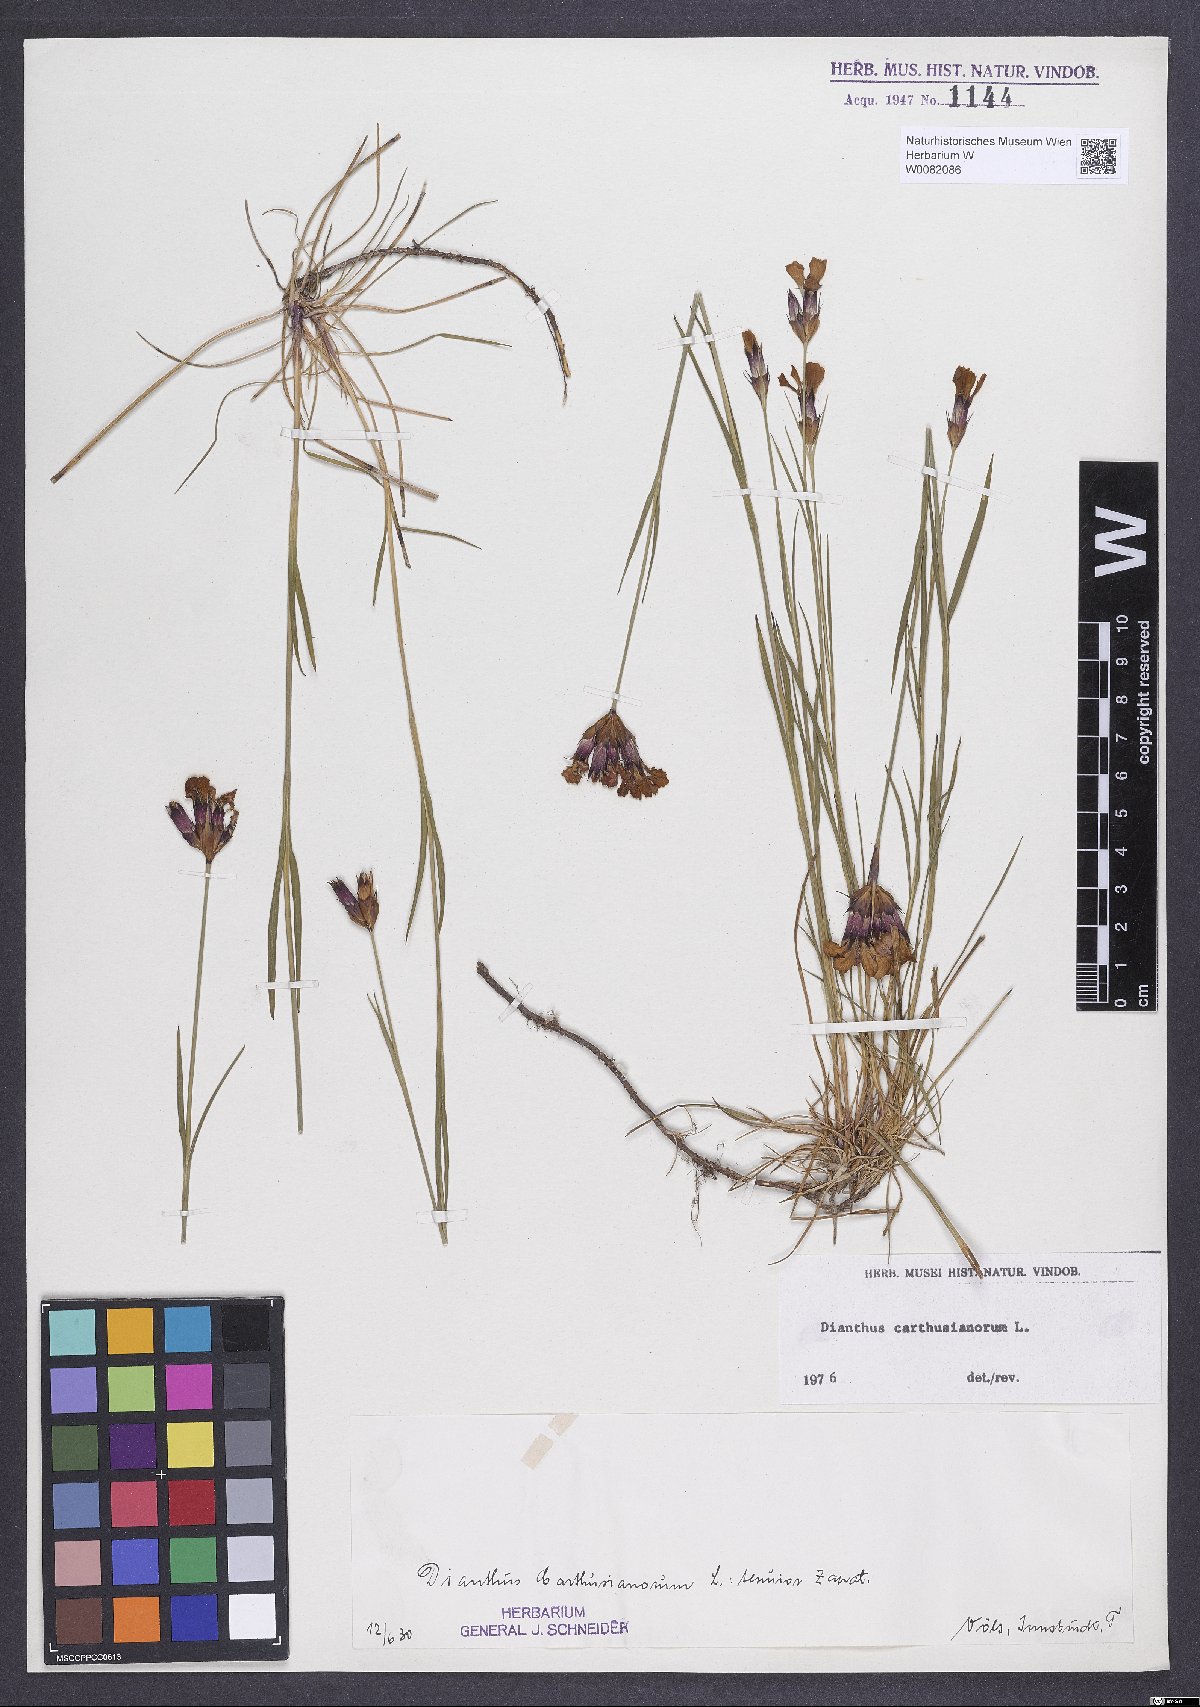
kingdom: Plantae
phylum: Tracheophyta
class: Magnoliopsida
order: Caryophyllales
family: Caryophyllaceae
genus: Dianthus
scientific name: Dianthus carthusianorum
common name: Carthusian pink
